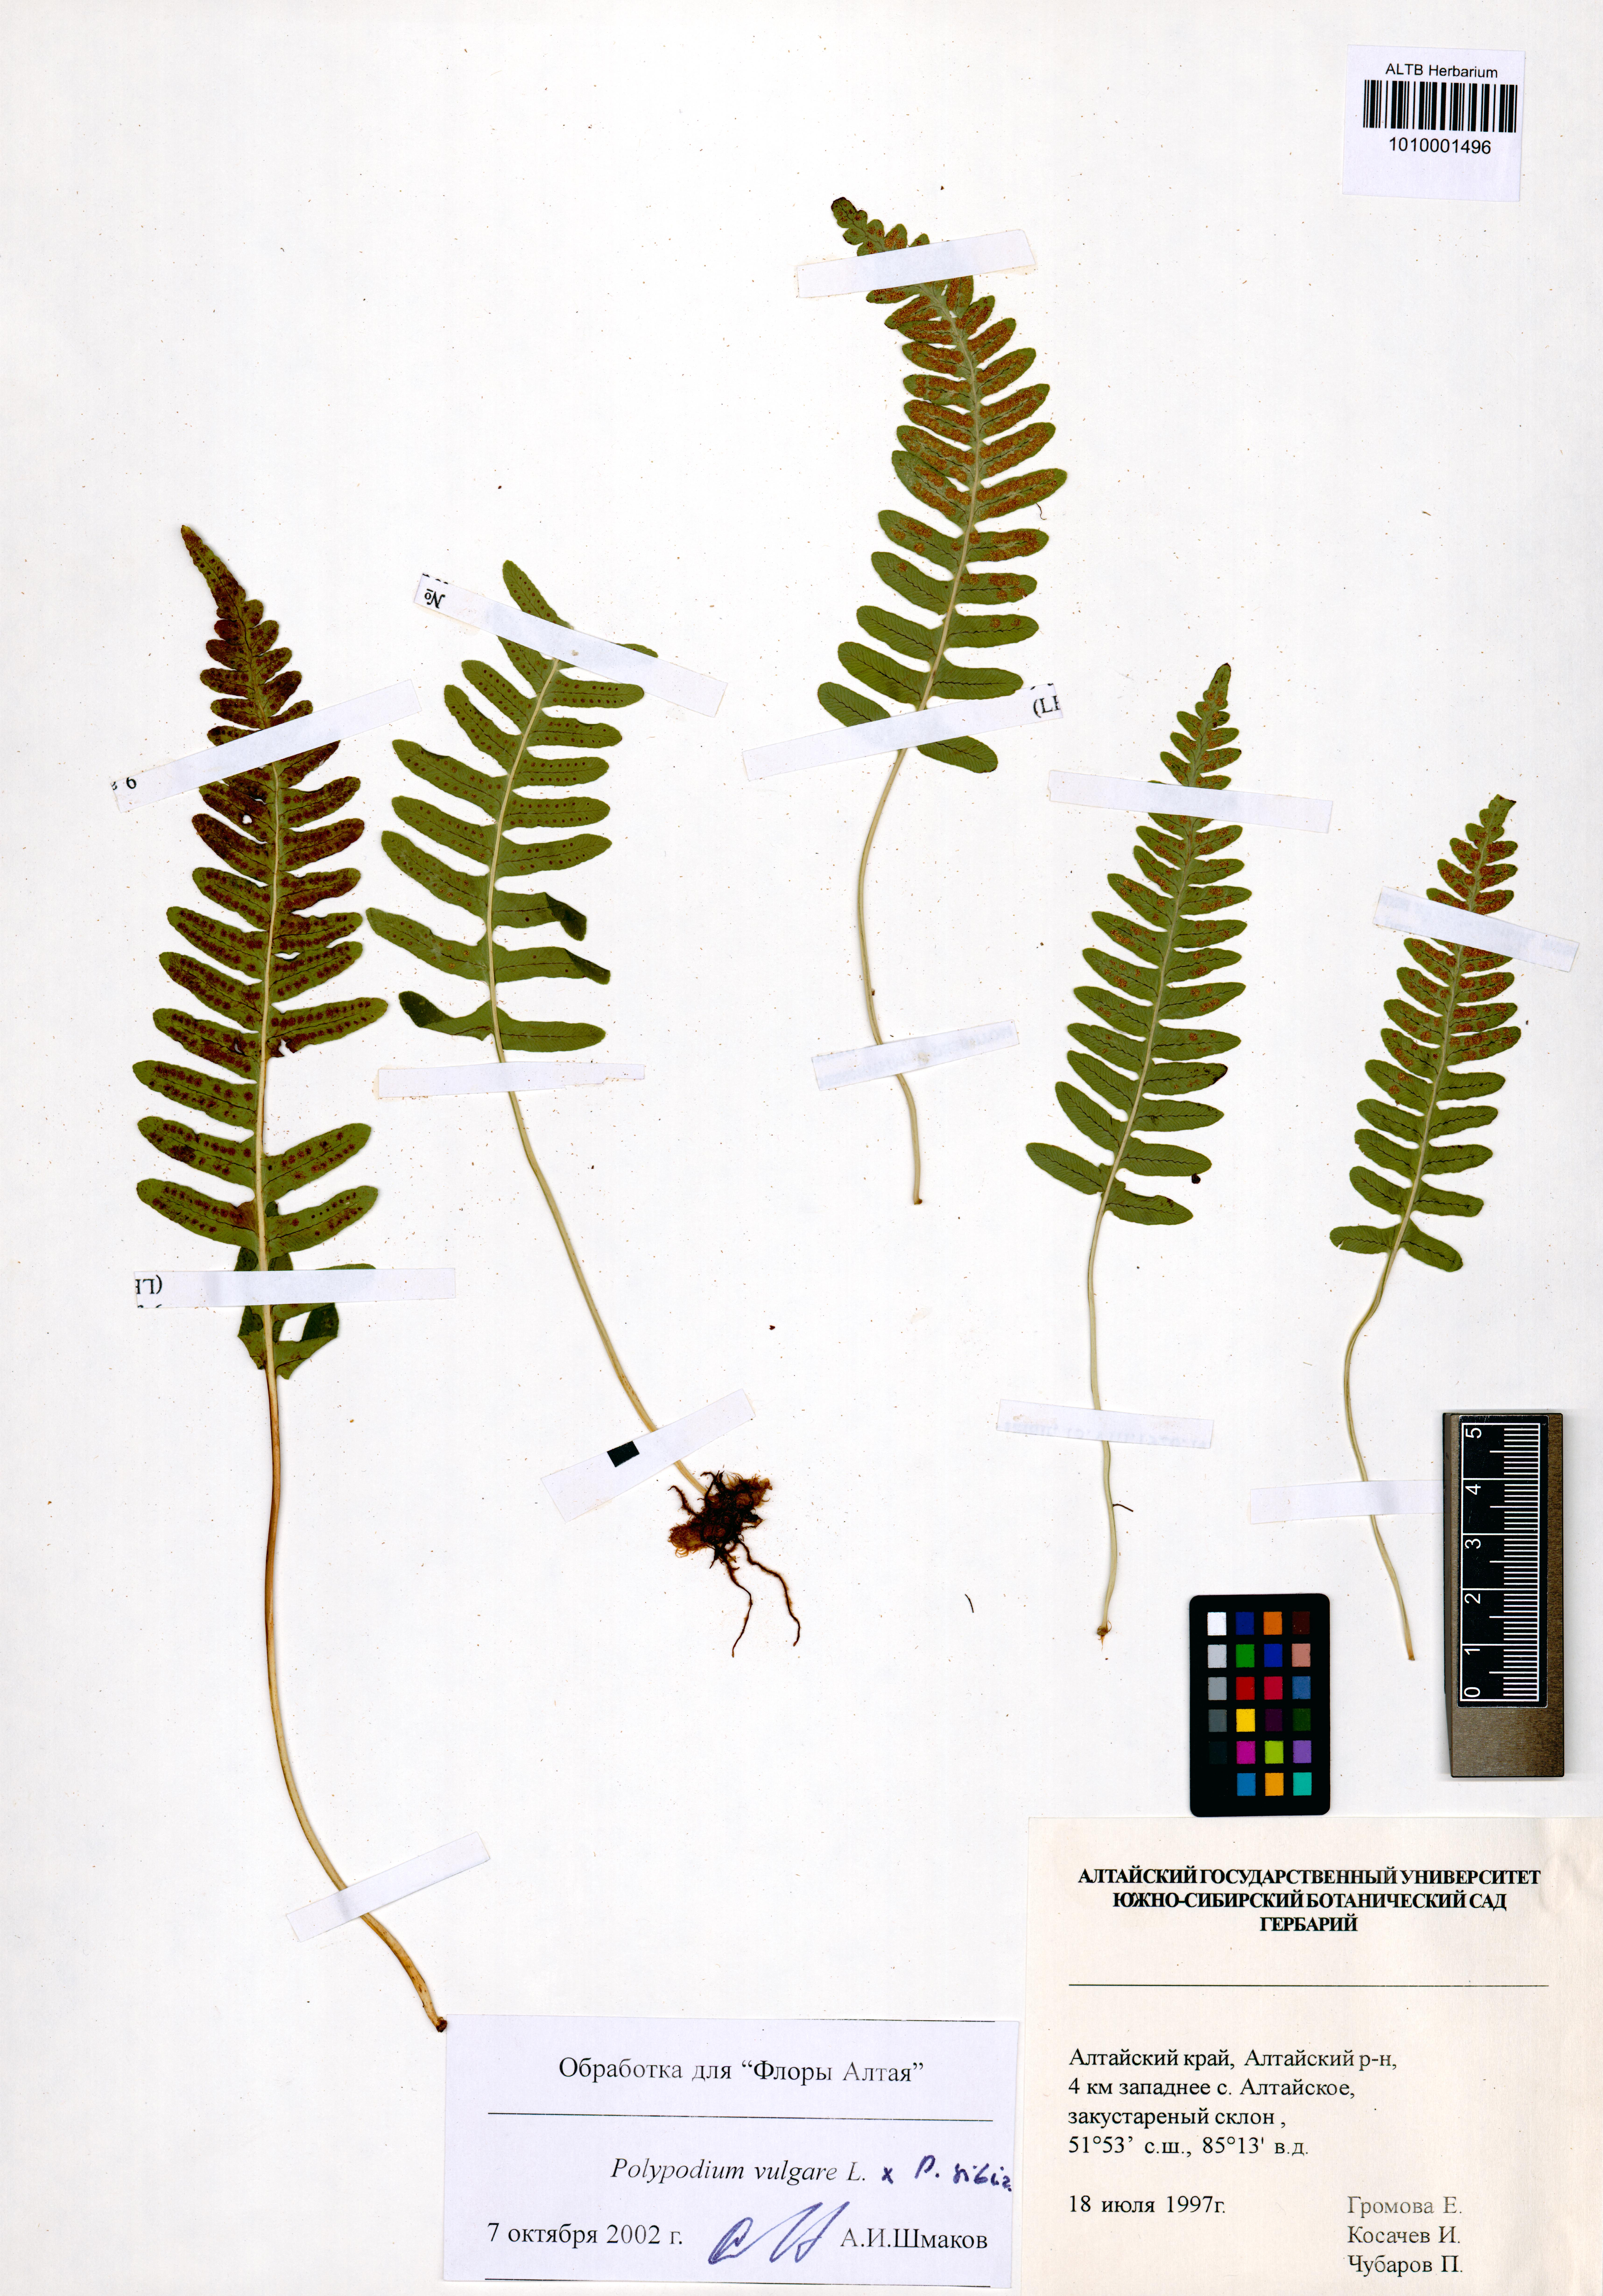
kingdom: Plantae
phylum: Tracheophyta
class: Polypodiopsida
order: Polypodiales
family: Polypodiaceae
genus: Polypodium
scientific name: Polypodium vulgare
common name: Common polypody
